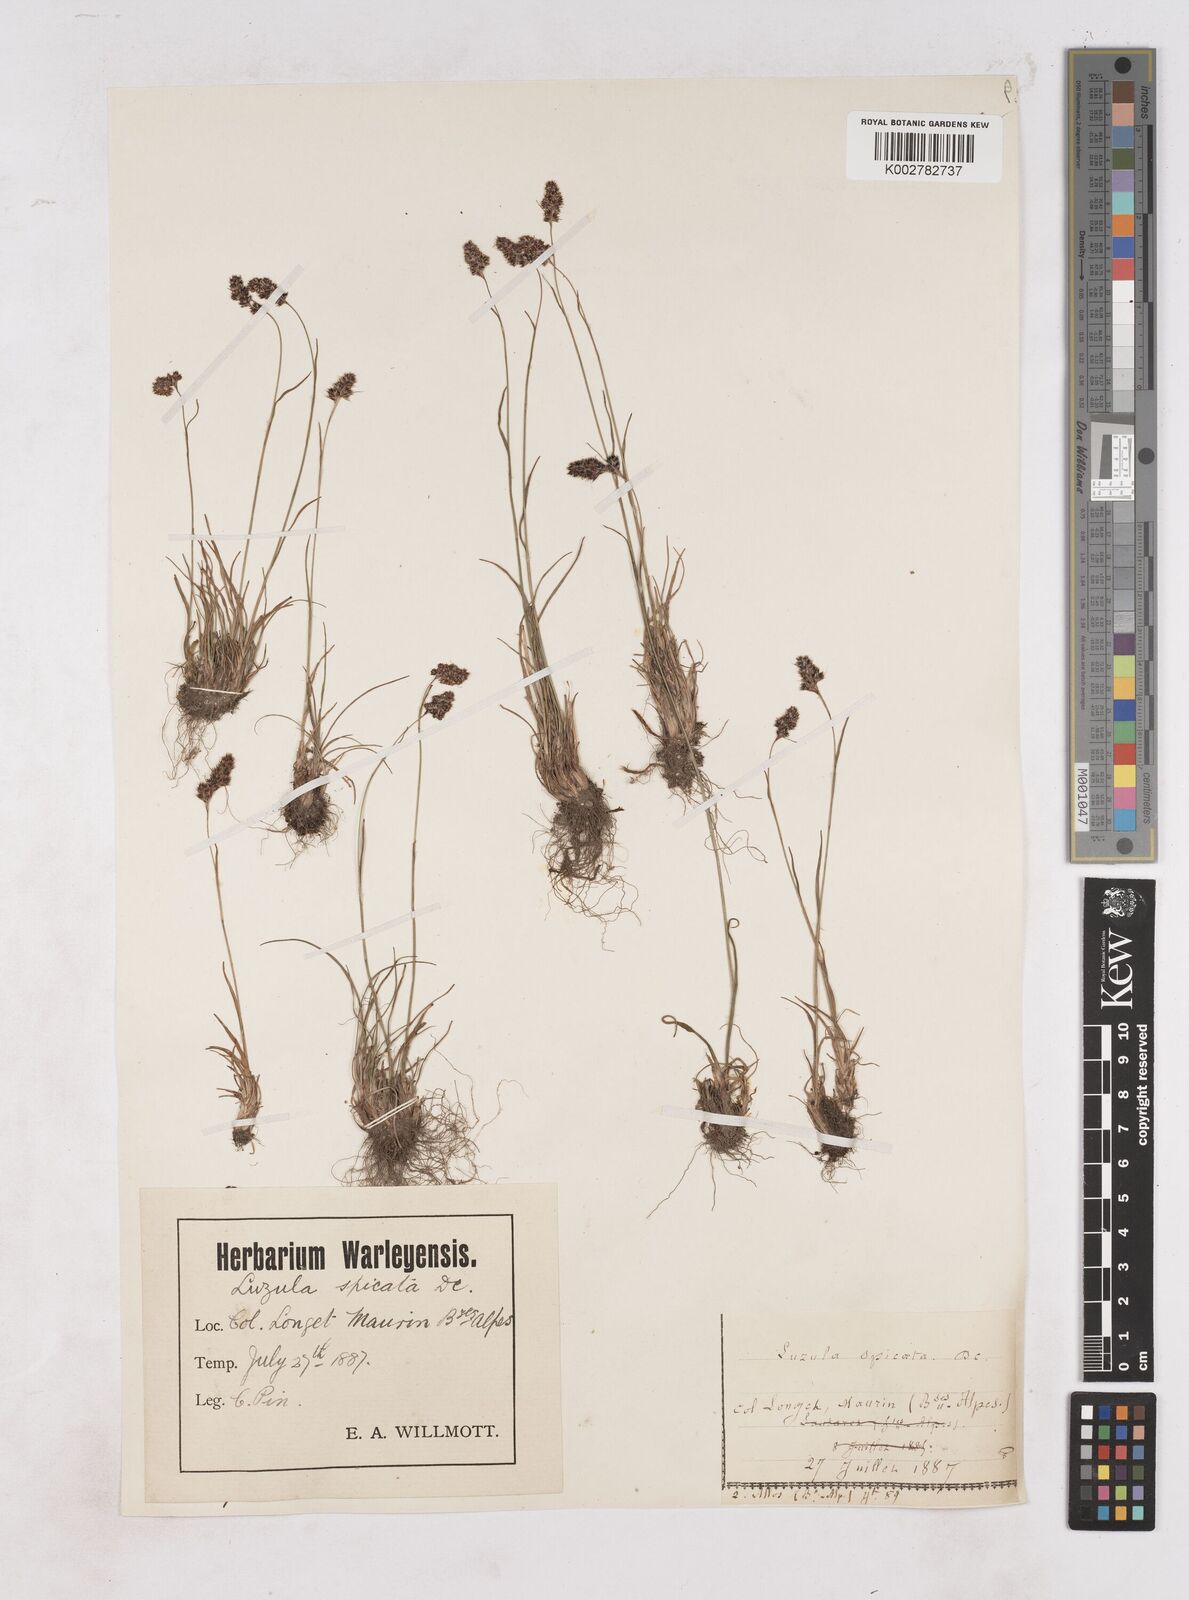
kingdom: Plantae
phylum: Tracheophyta
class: Liliopsida
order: Poales
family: Juncaceae
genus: Luzula
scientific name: Luzula spicata
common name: Spiked wood-rush
